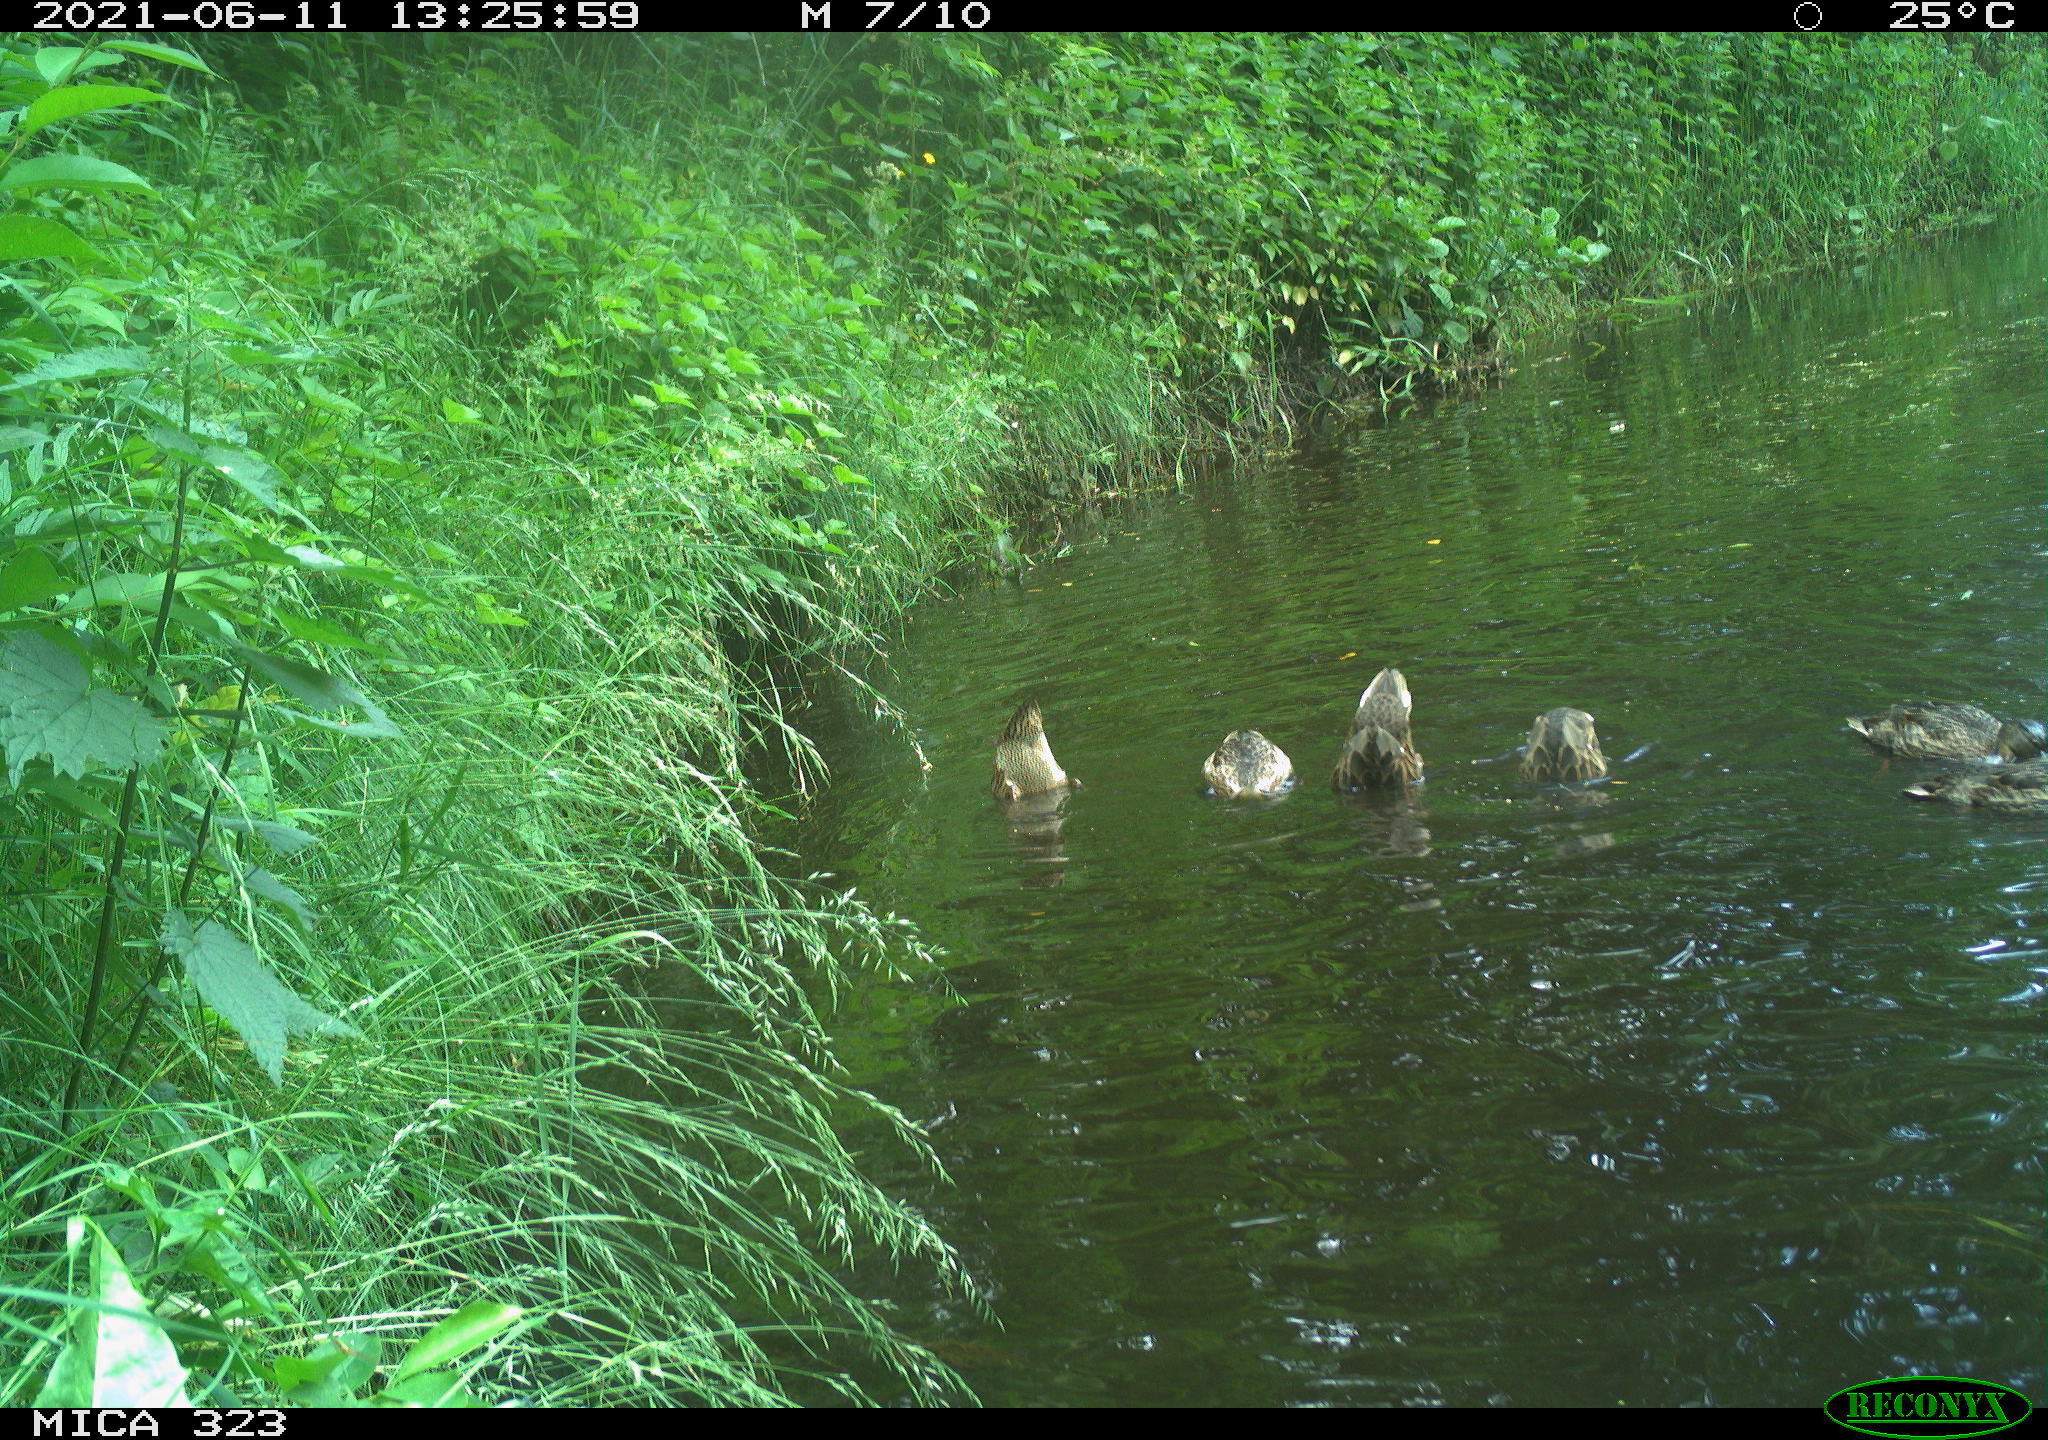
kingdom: Animalia
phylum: Chordata
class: Aves
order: Anseriformes
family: Anatidae
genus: Anas
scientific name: Anas platyrhynchos
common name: Mallard
